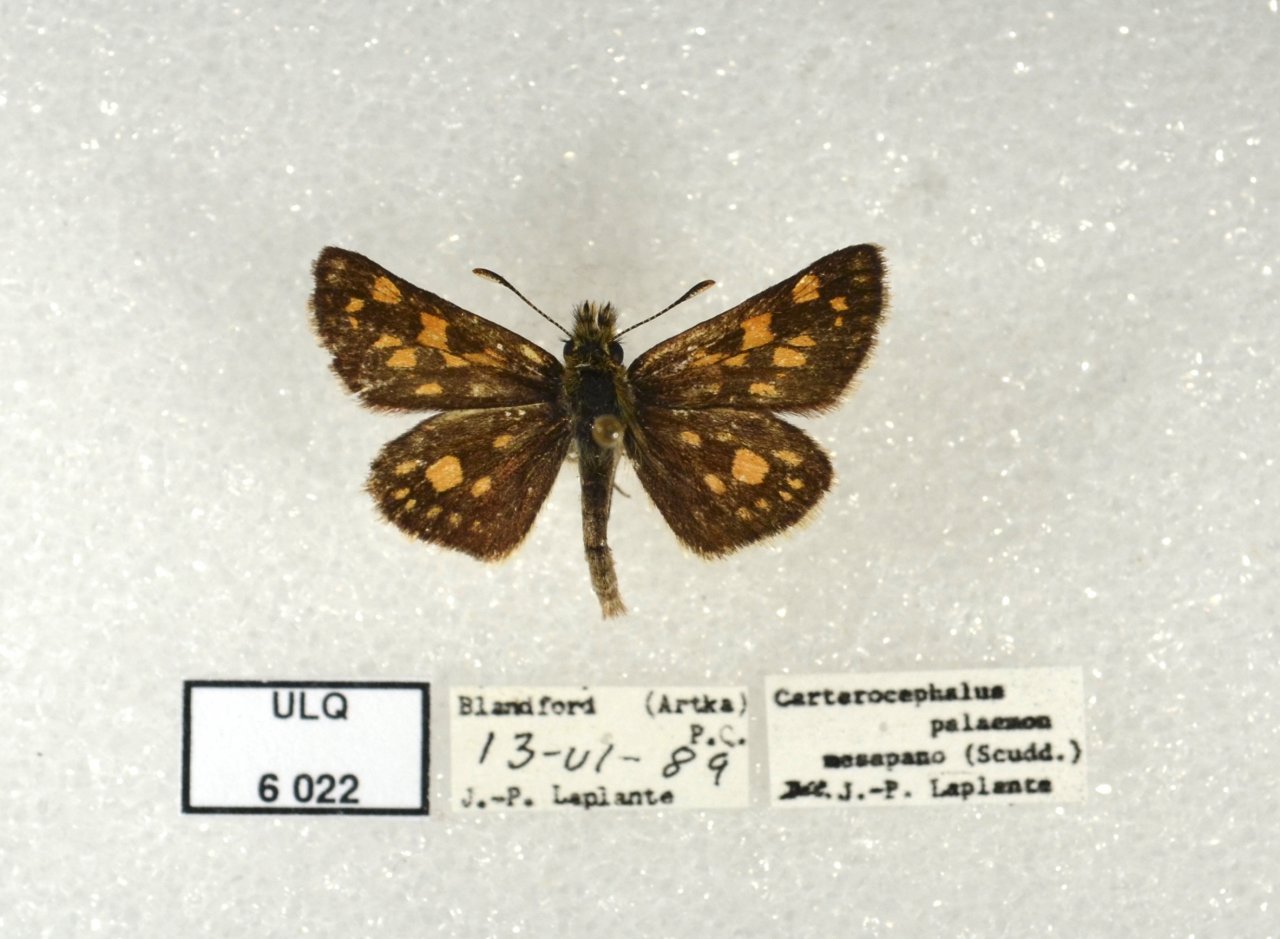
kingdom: Animalia
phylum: Arthropoda
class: Insecta
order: Lepidoptera
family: Hesperiidae
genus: Carterocephalus
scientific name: Carterocephalus palaemon
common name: Chequered Skipper
